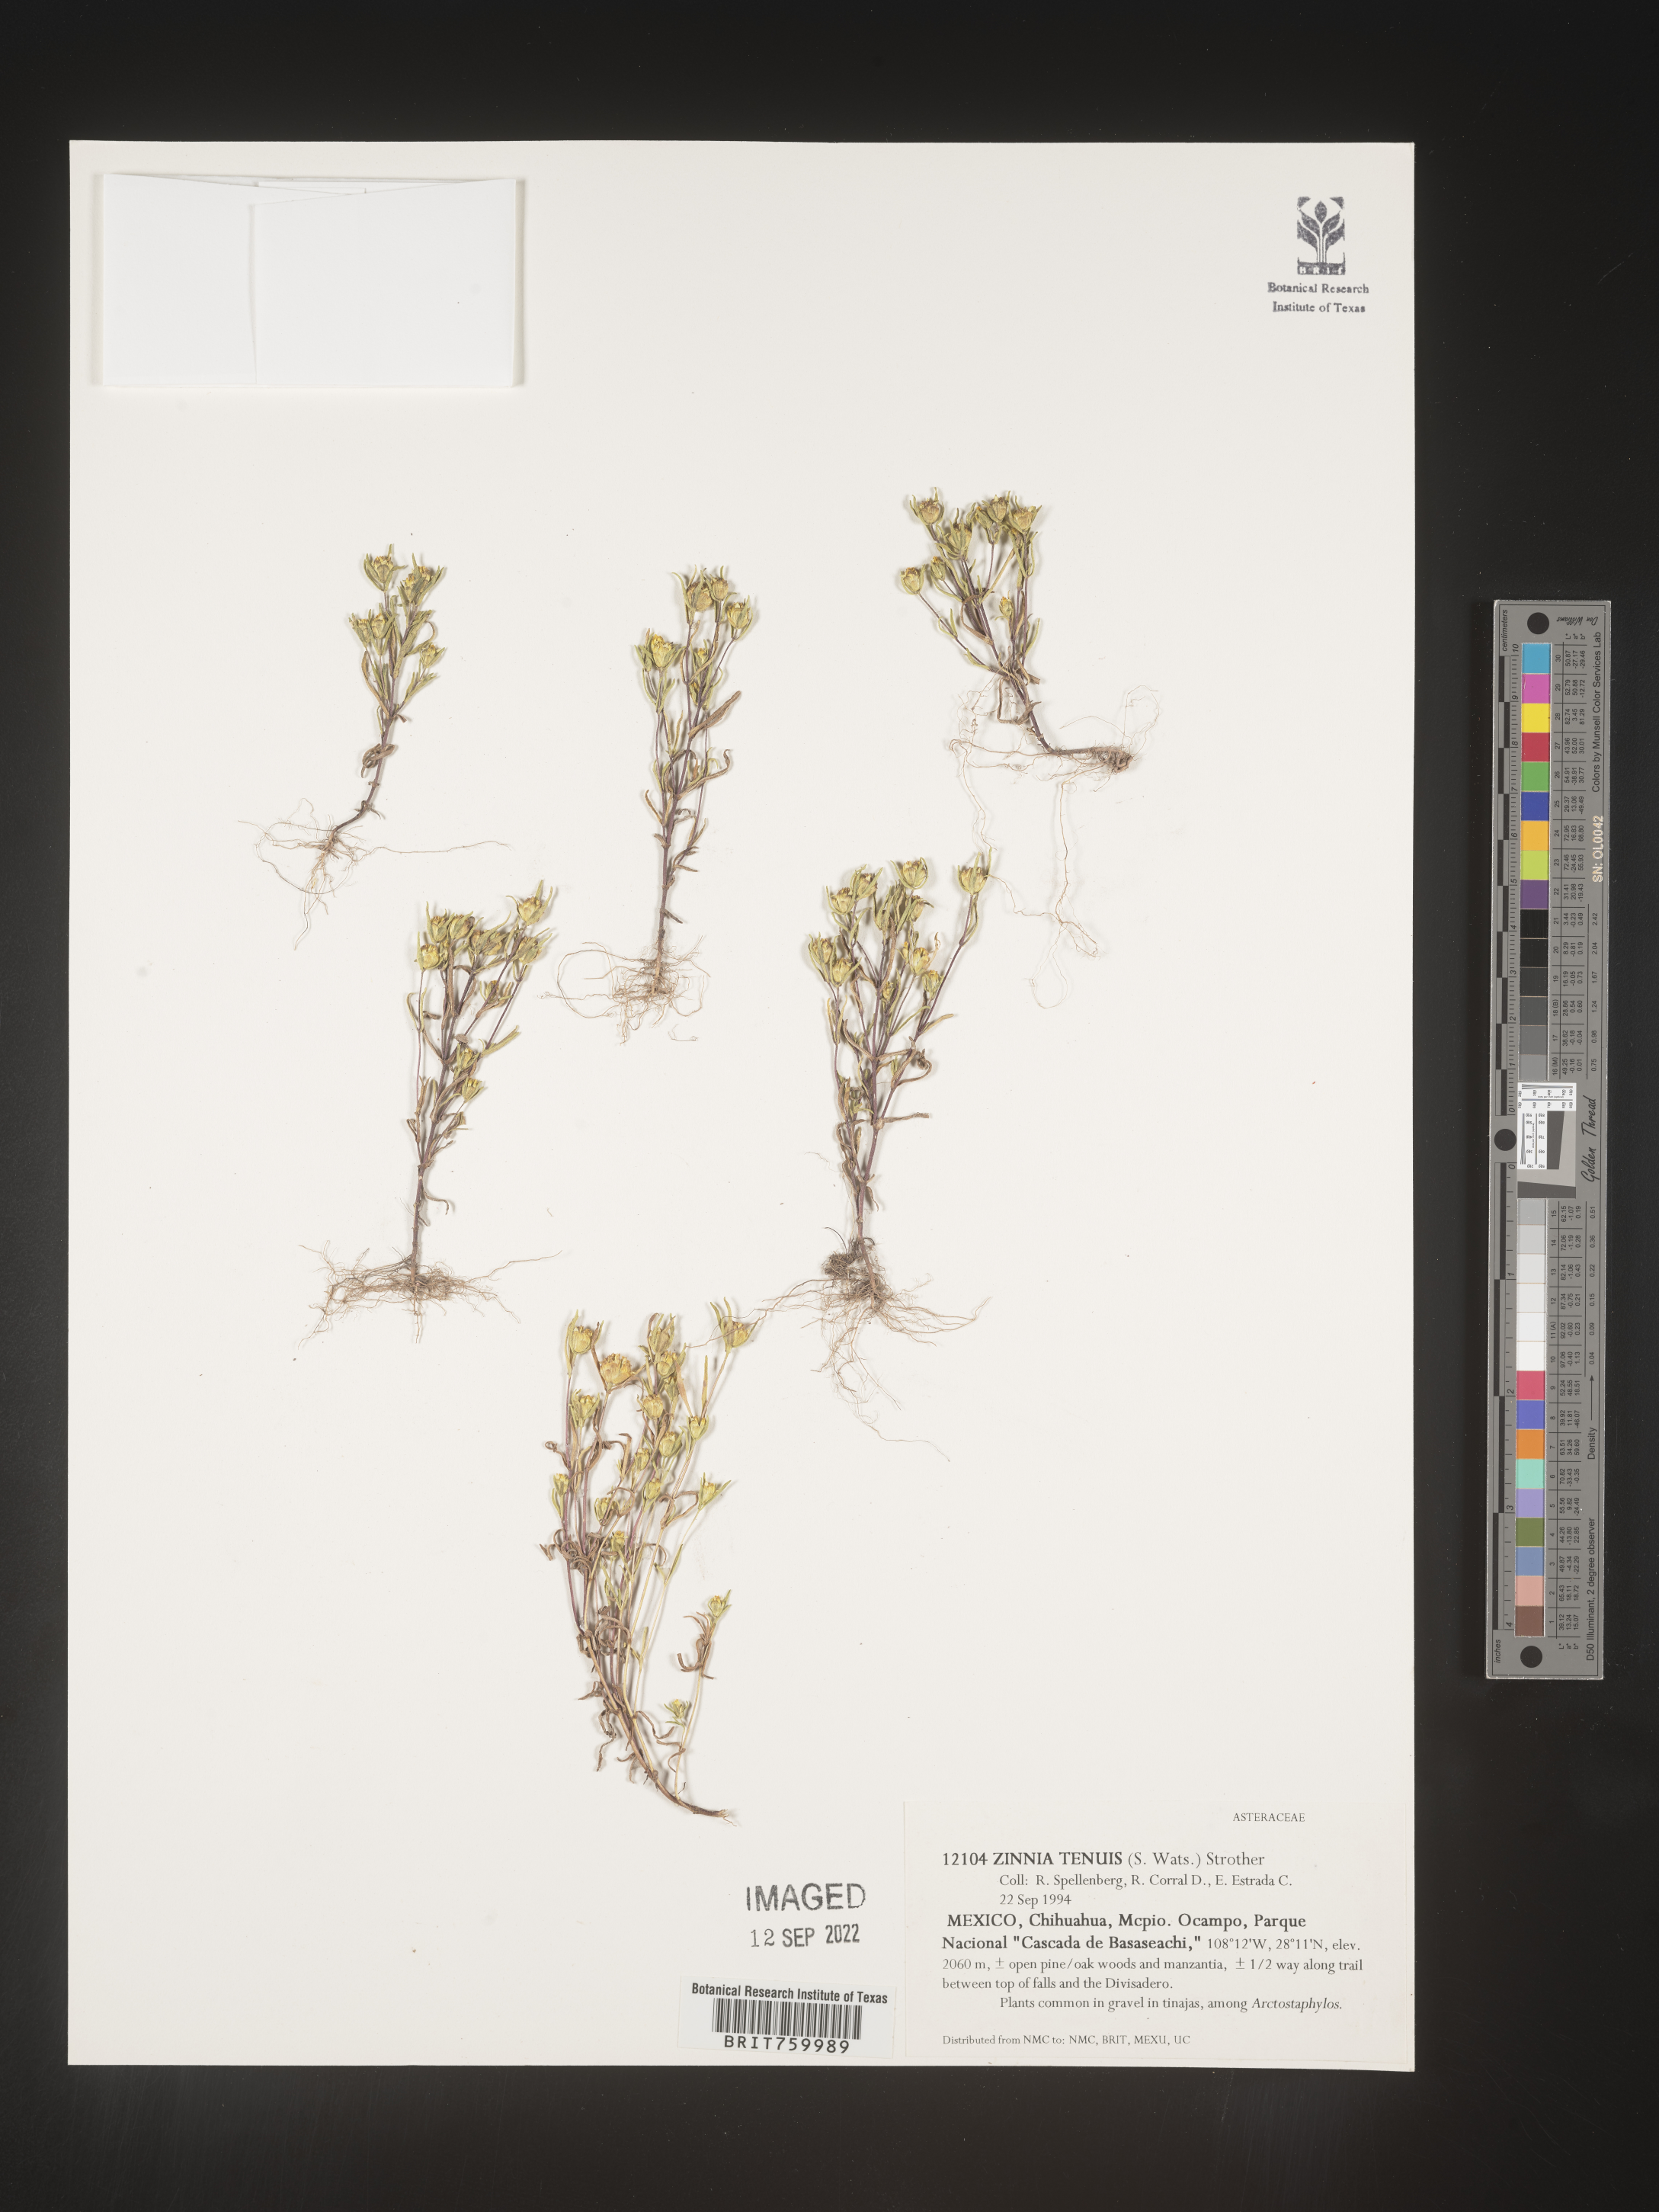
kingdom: Plantae
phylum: Tracheophyta
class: Magnoliopsida
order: Asterales
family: Asteraceae
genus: Zinnia
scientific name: Zinnia
